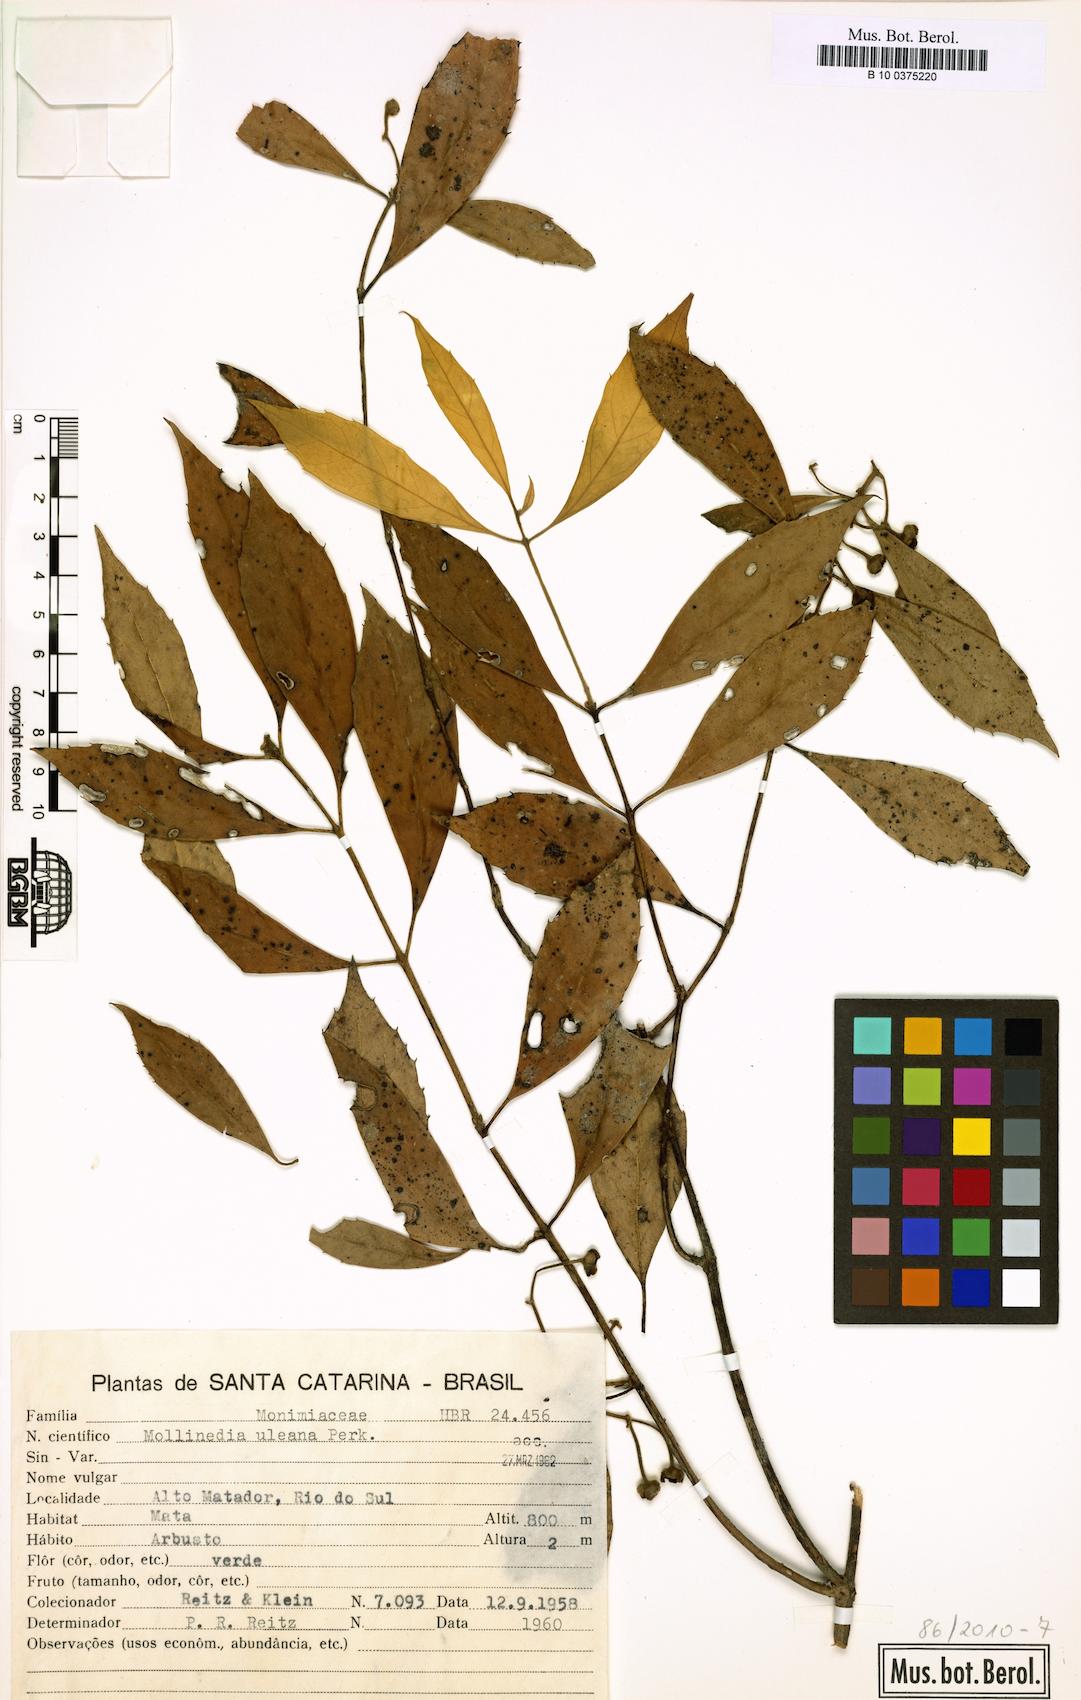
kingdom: Plantae
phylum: Tracheophyta
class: Magnoliopsida
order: Laurales
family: Monimiaceae
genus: Mollinedia
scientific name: Mollinedia uleana
